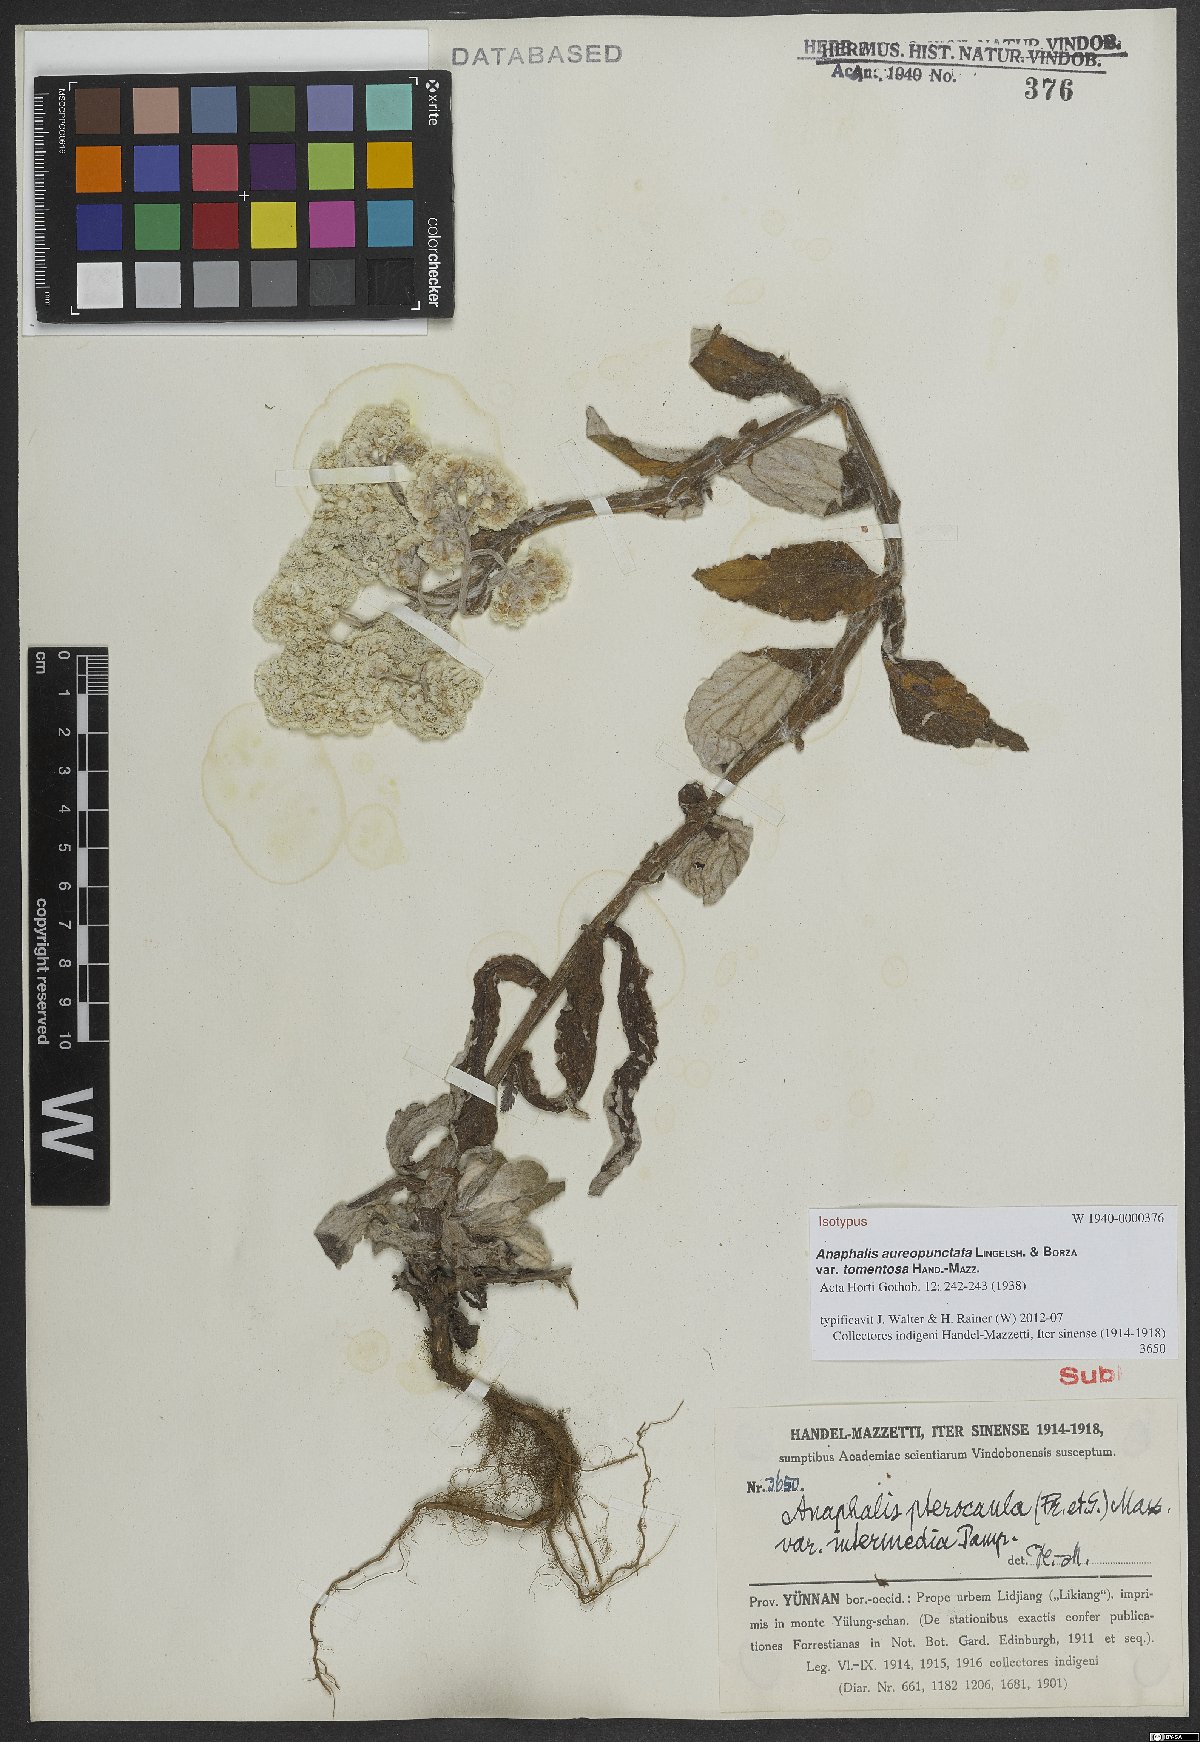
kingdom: Plantae
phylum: Tracheophyta
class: Magnoliopsida
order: Asterales
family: Asteraceae
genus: Anaphalis
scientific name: Anaphalis aureopunctata
